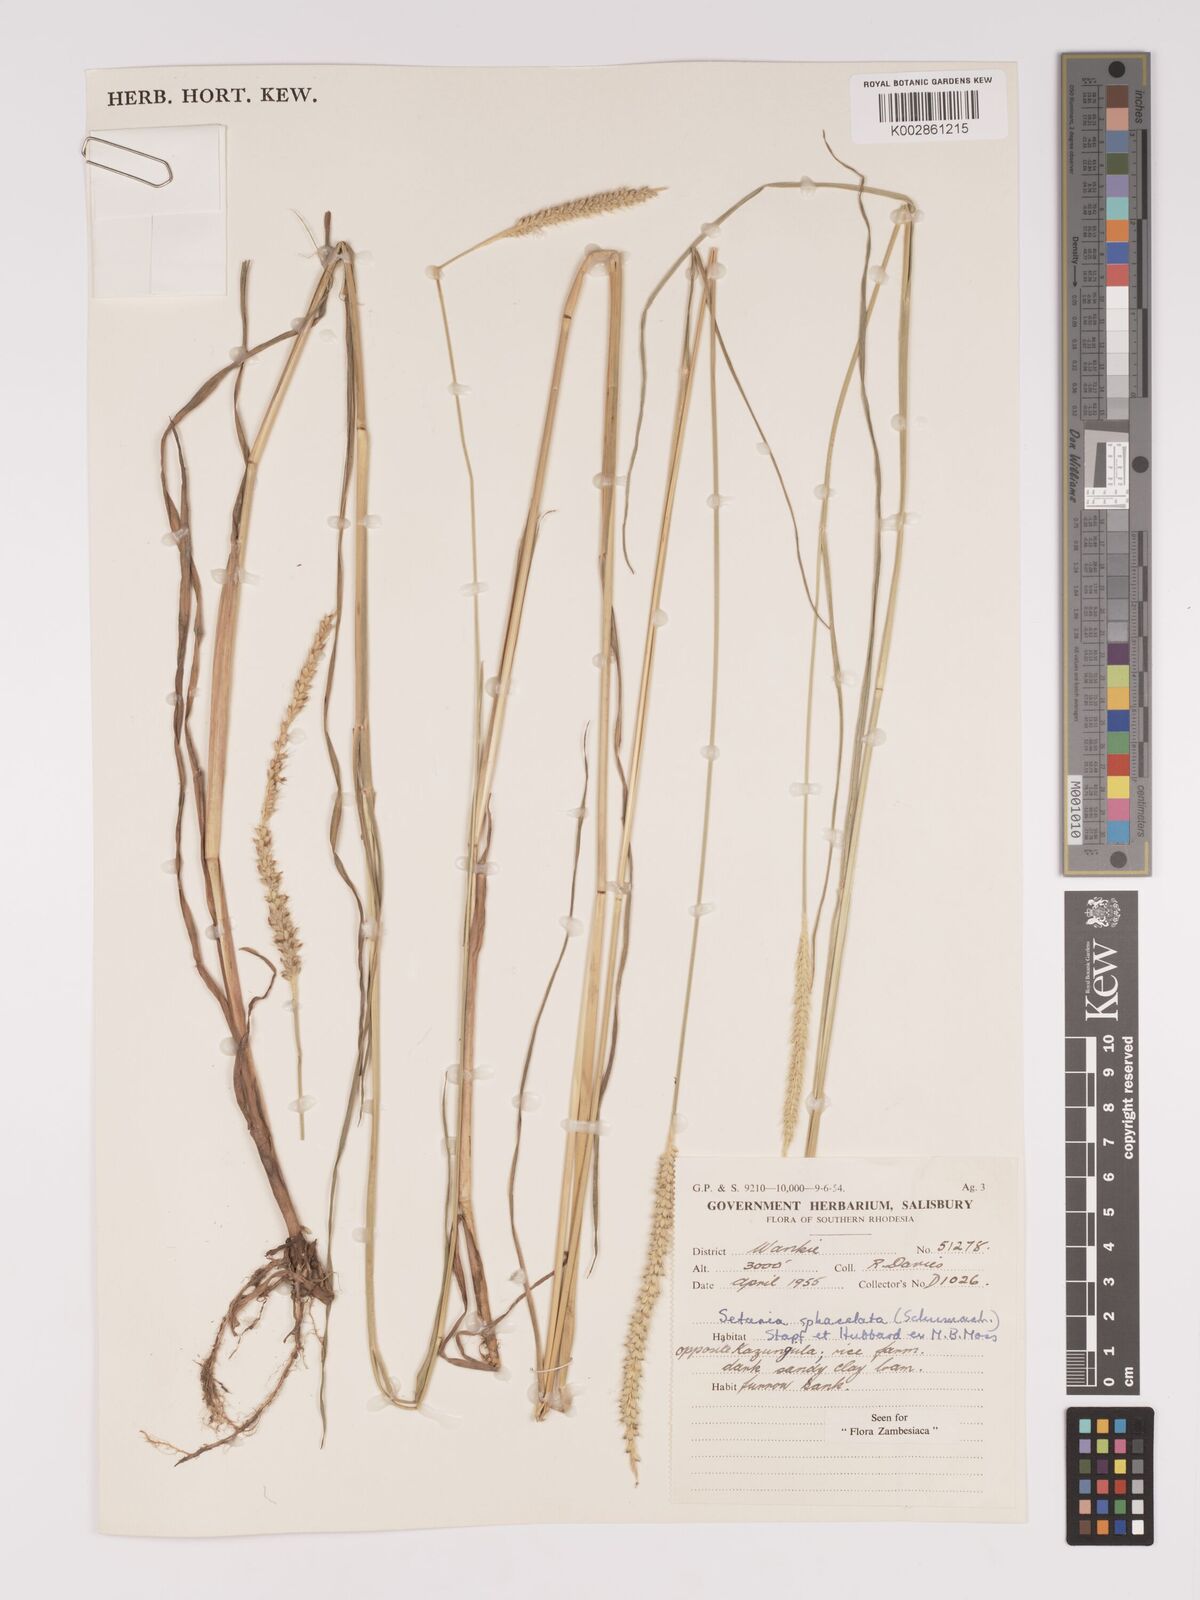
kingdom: Plantae
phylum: Tracheophyta
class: Liliopsida
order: Poales
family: Poaceae
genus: Setaria
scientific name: Setaria sphacelata
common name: African bristlegrass
